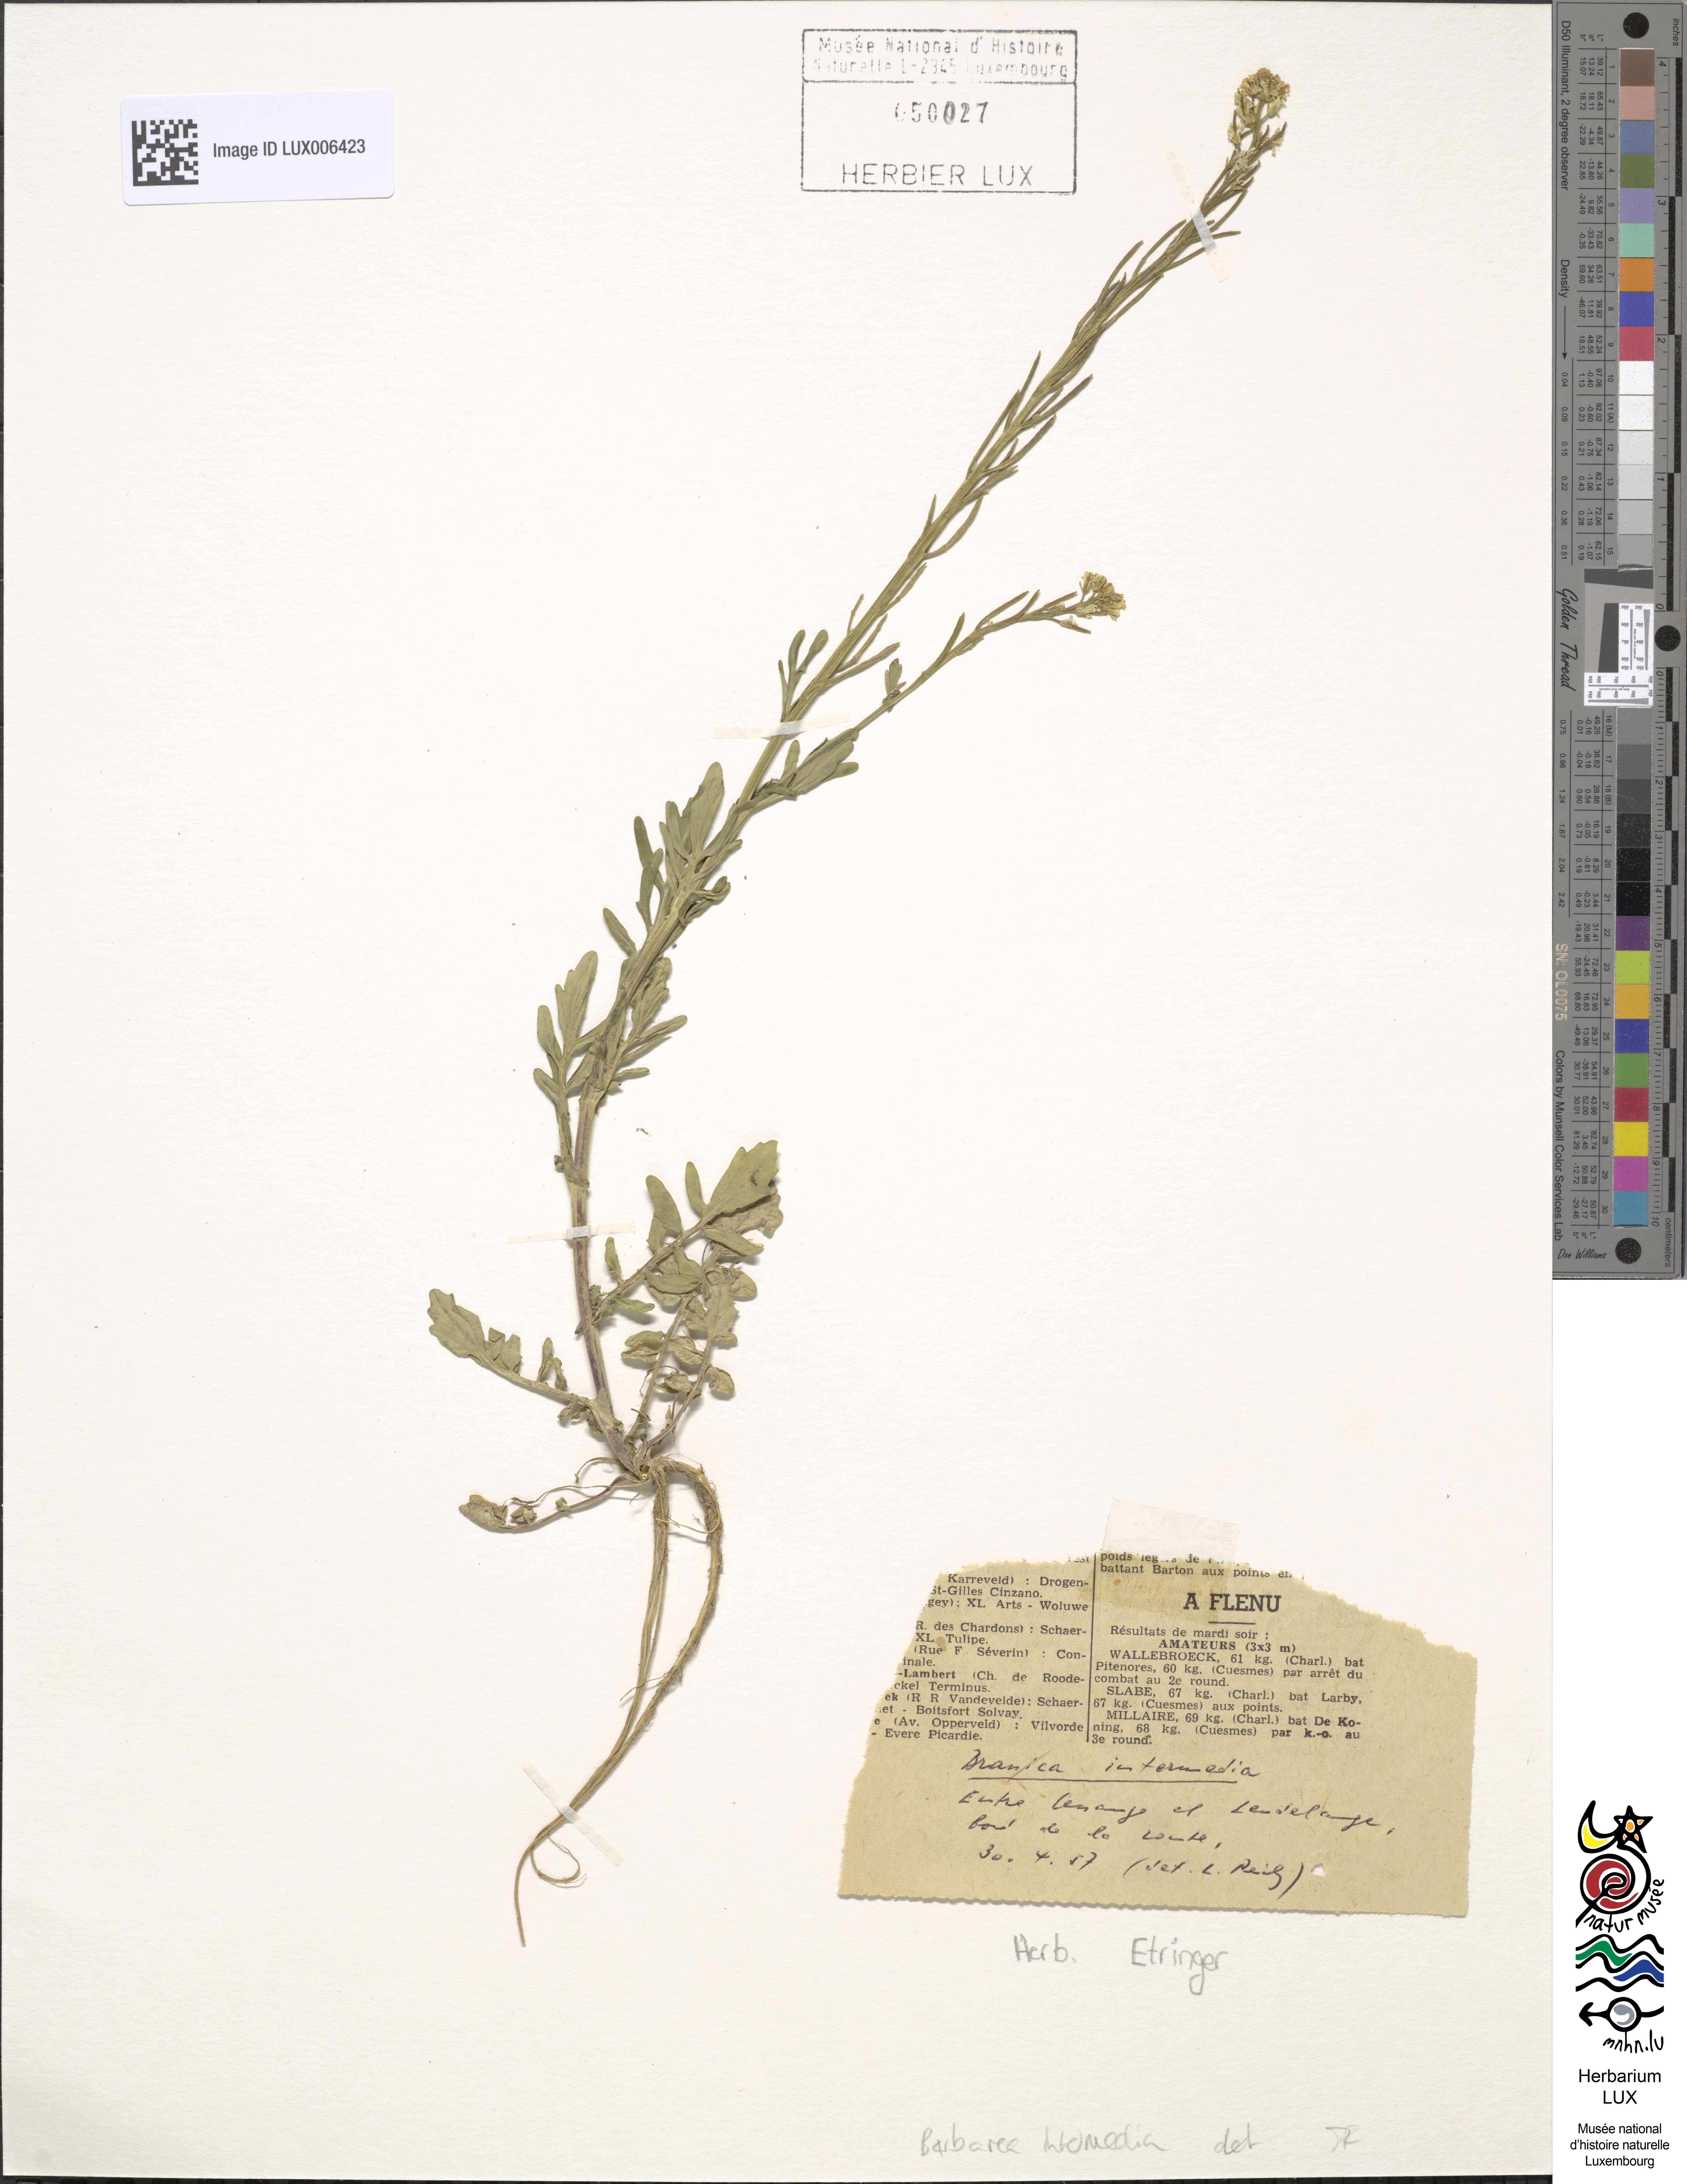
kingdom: Plantae
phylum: Tracheophyta
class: Magnoliopsida
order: Brassicales
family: Brassicaceae
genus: Barbarea
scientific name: Barbarea intermedia
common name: Medium-flowered winter-cress
